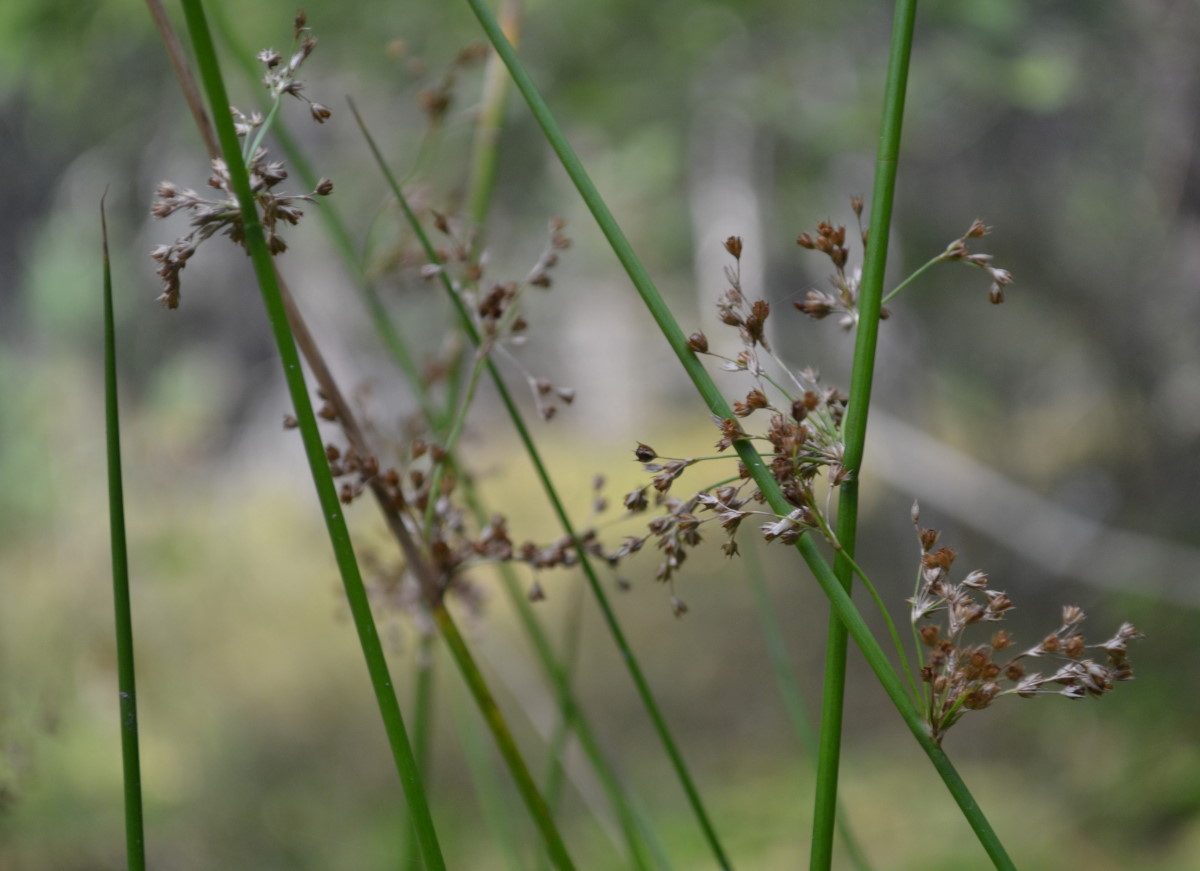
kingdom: Plantae
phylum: Tracheophyta
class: Liliopsida
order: Poales
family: Juncaceae
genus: Juncus
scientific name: Juncus effusus
